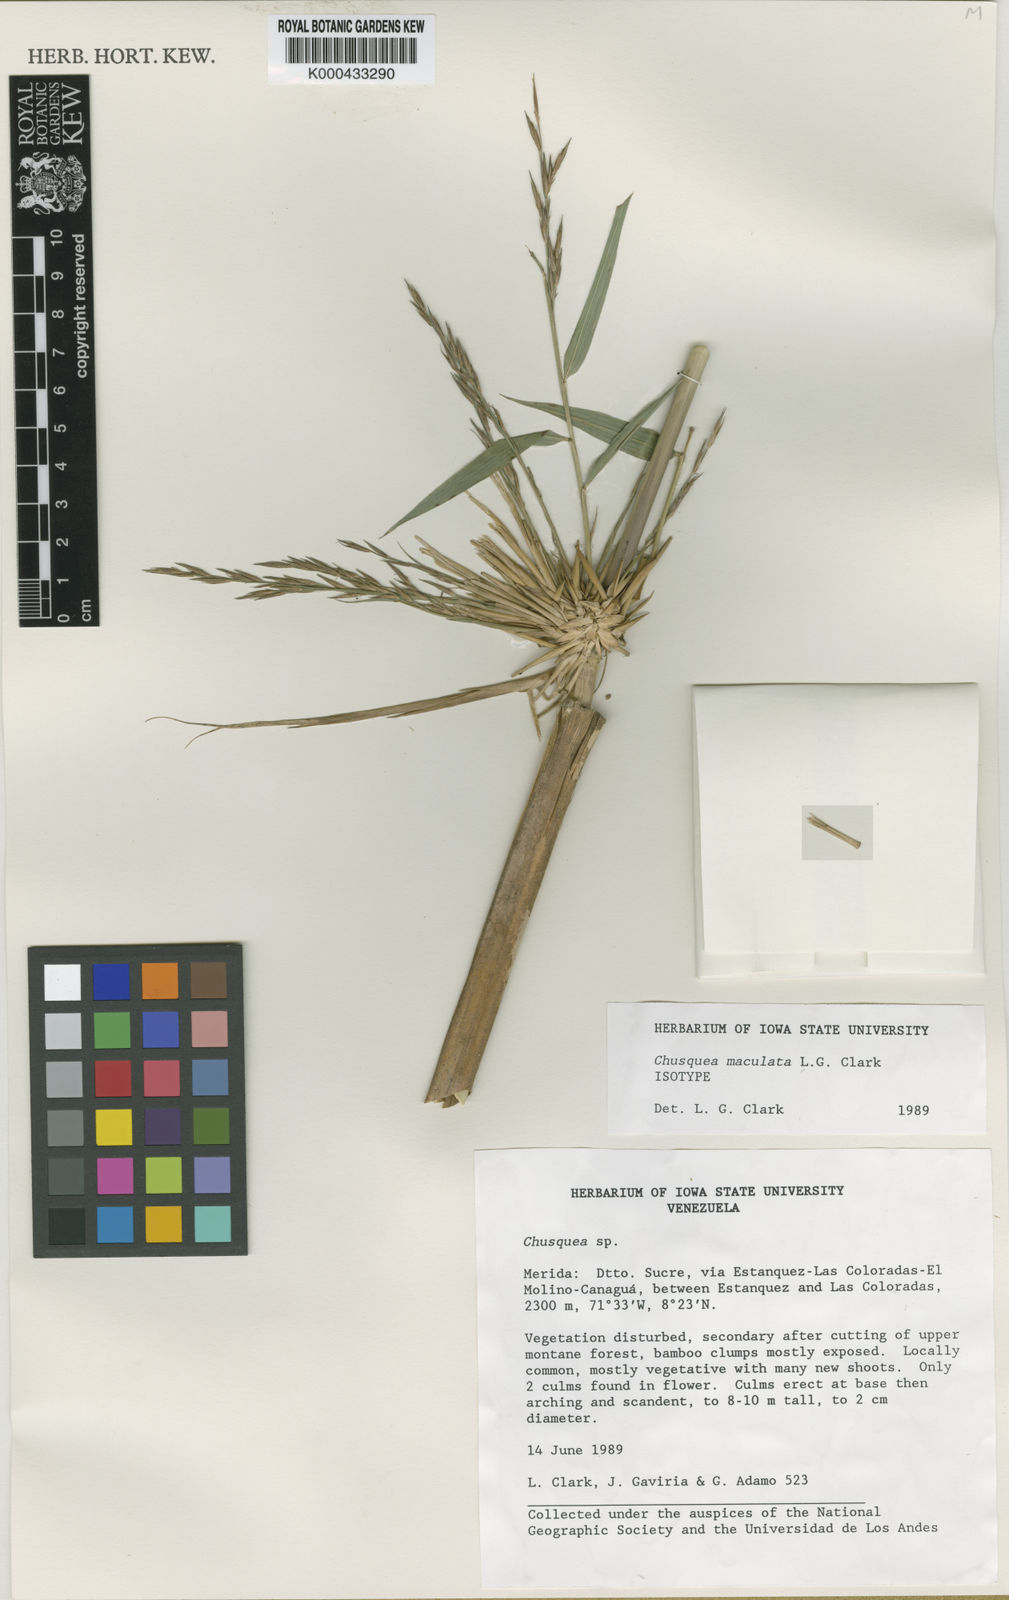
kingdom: Plantae
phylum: Tracheophyta
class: Liliopsida
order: Poales
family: Poaceae
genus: Chusquea
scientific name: Chusquea maculata
